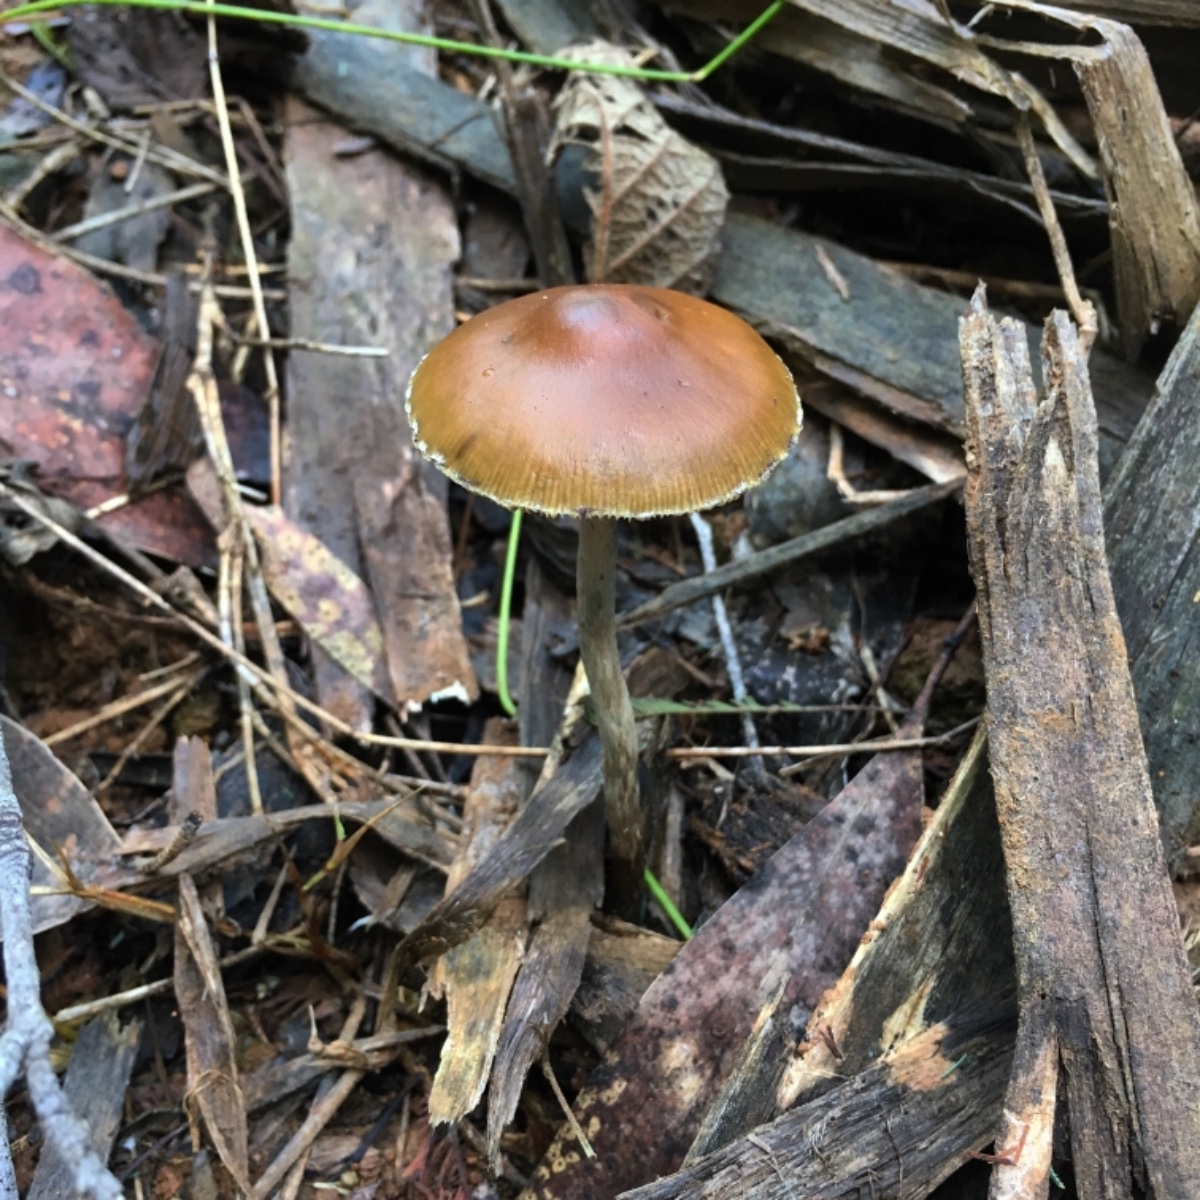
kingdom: Fungi
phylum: Basidiomycota
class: Agaricomycetes
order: Agaricales
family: Hymenogastraceae
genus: Psilocybe
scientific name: Psilocybe subaeruginosa
